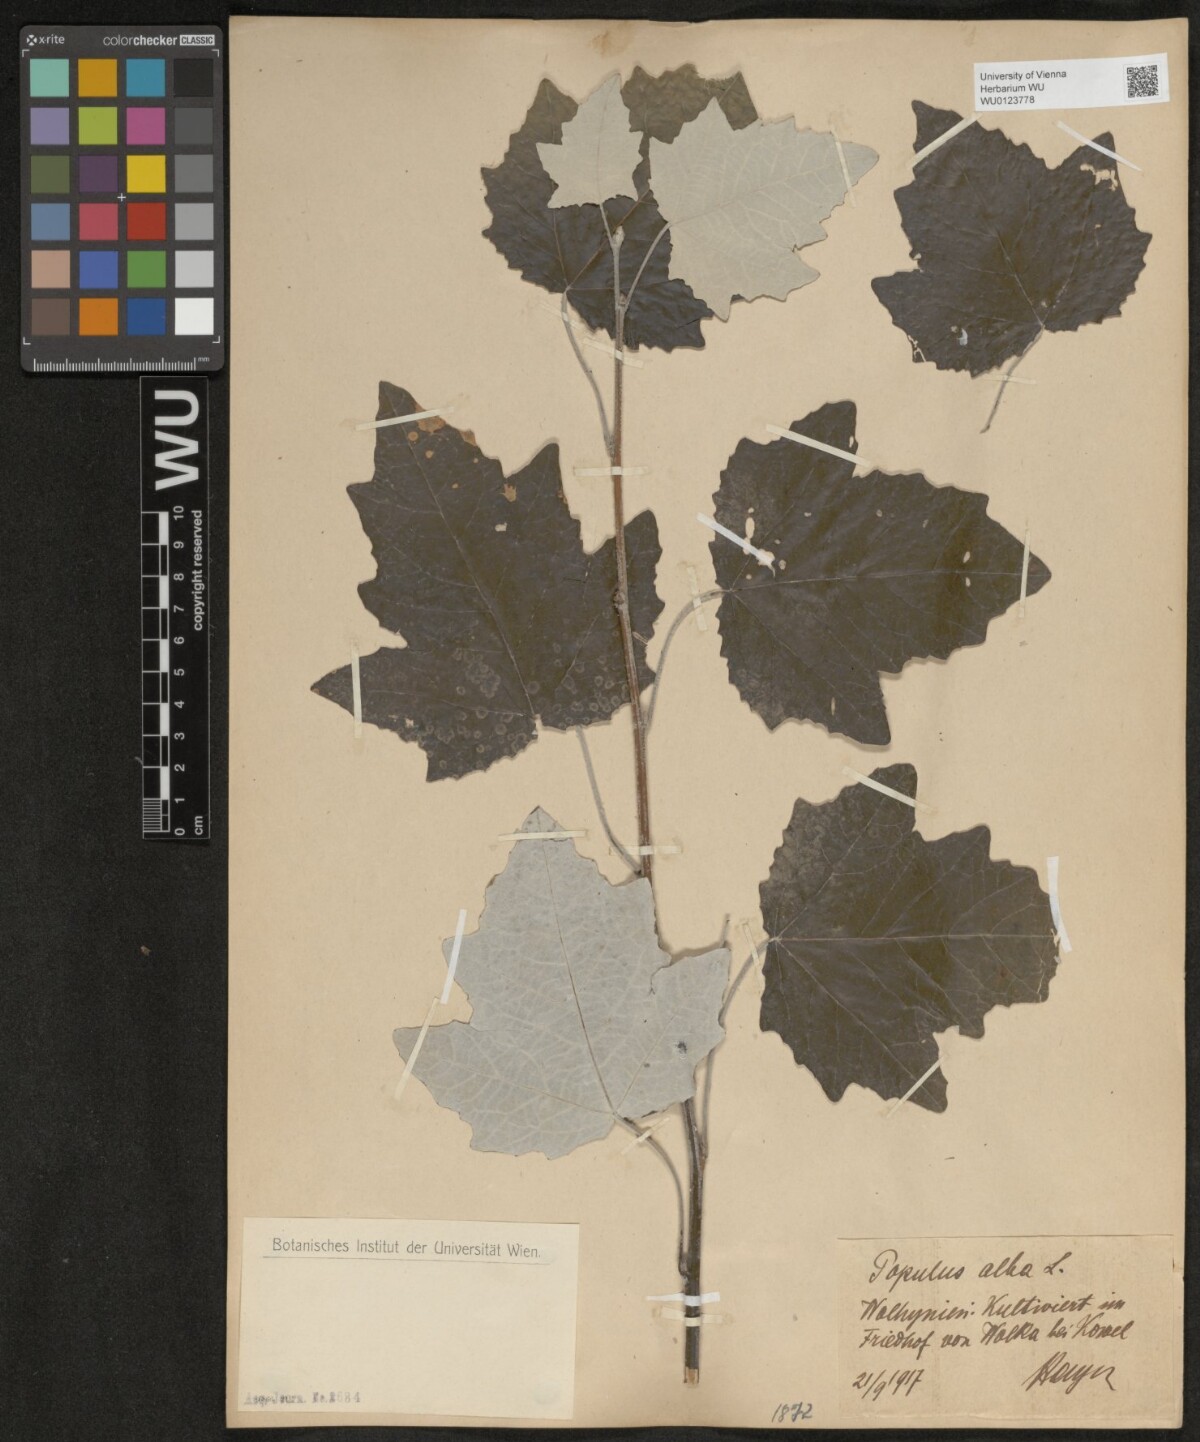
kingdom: Plantae
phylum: Tracheophyta
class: Magnoliopsida
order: Malpighiales
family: Salicaceae
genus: Populus
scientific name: Populus alba
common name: White poplar
